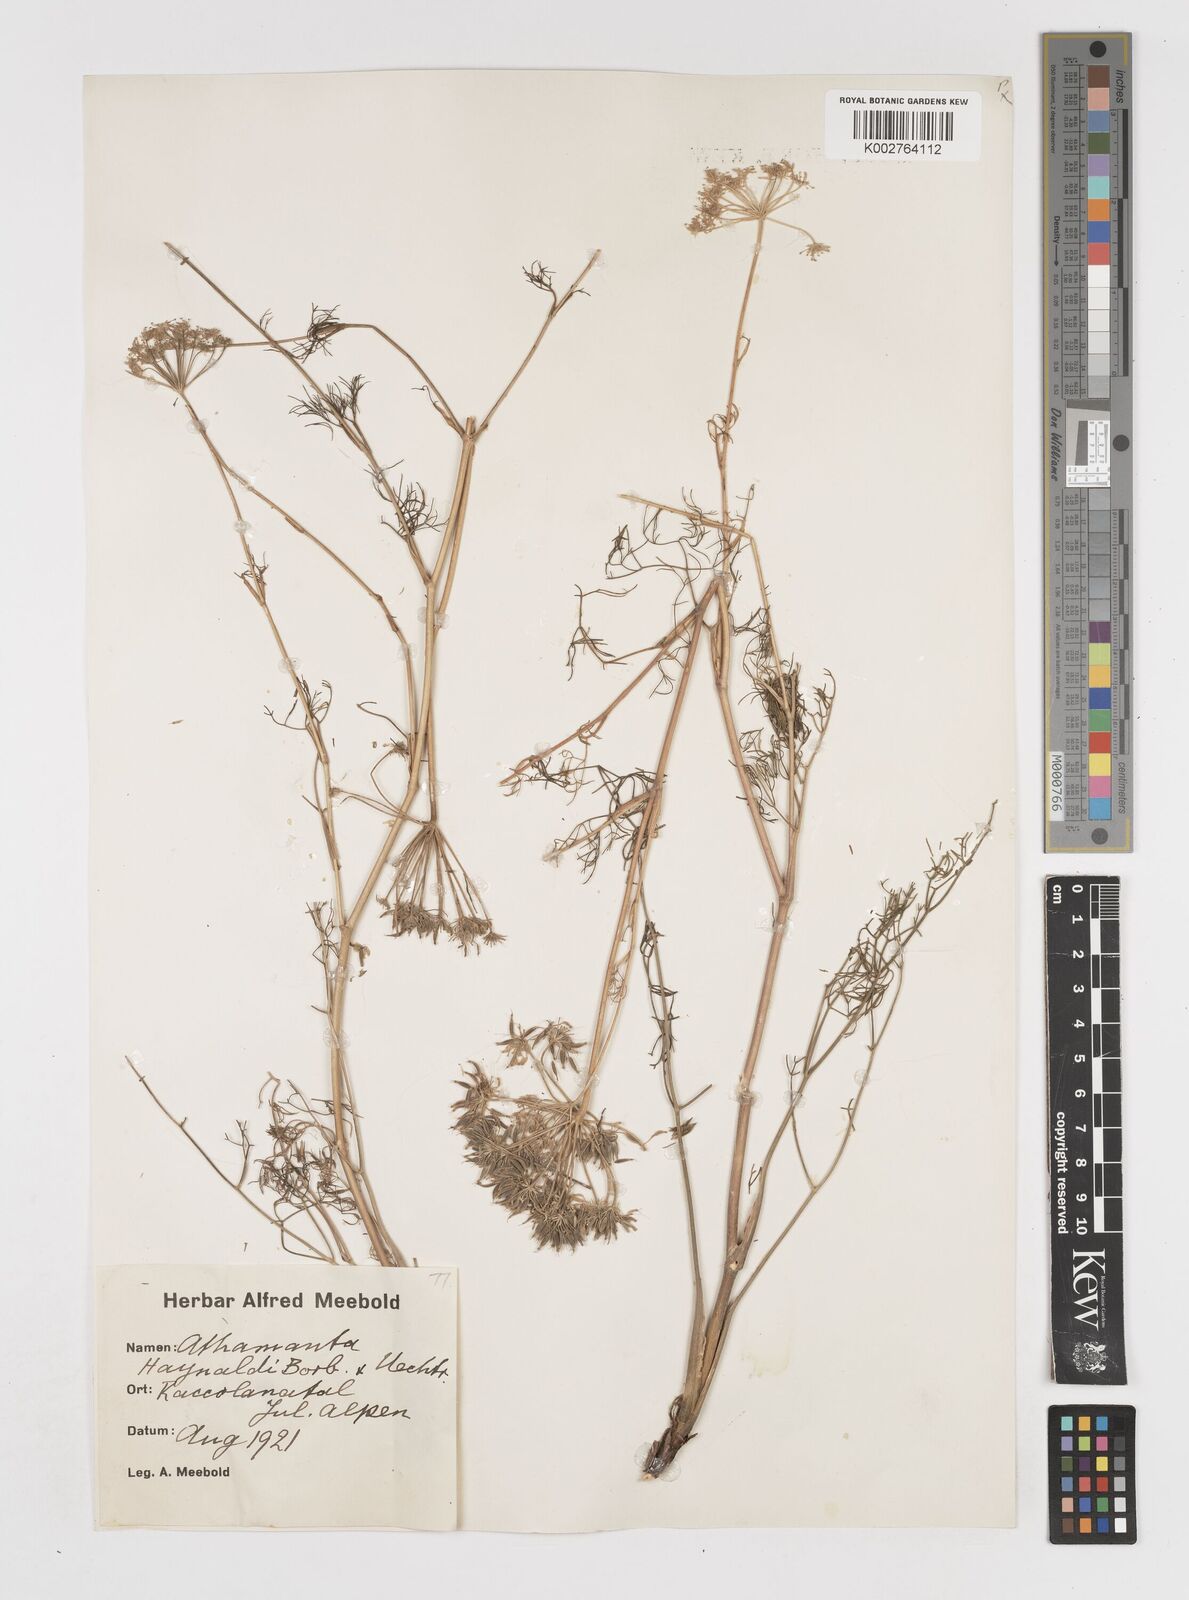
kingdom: Plantae
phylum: Tracheophyta
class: Magnoliopsida
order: Apiales
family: Apiaceae
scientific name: Apiaceae
